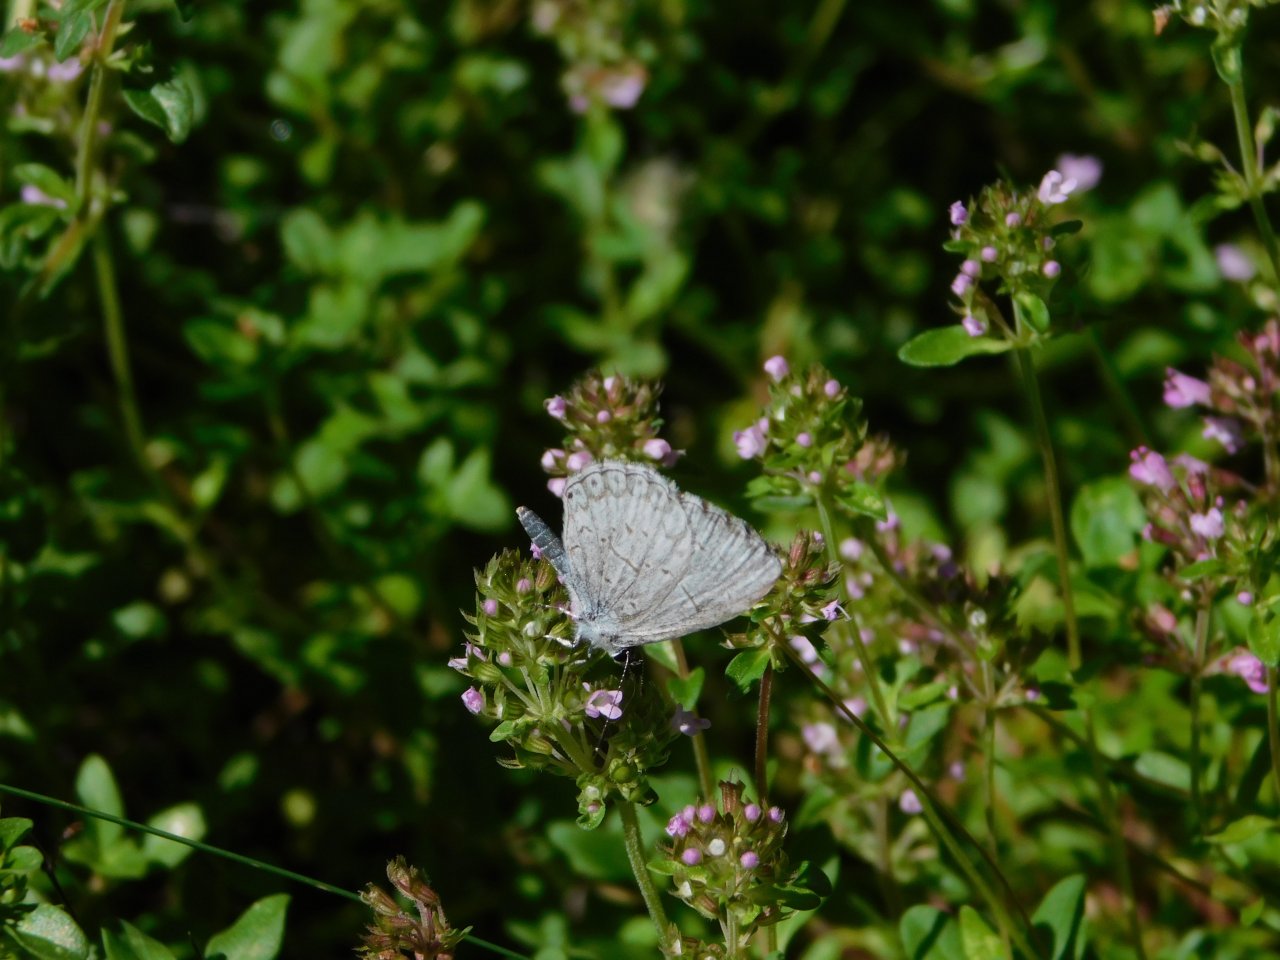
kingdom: Animalia
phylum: Arthropoda
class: Insecta
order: Lepidoptera
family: Lycaenidae
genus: Cyaniris
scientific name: Cyaniris neglecta
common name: Summer Azure
